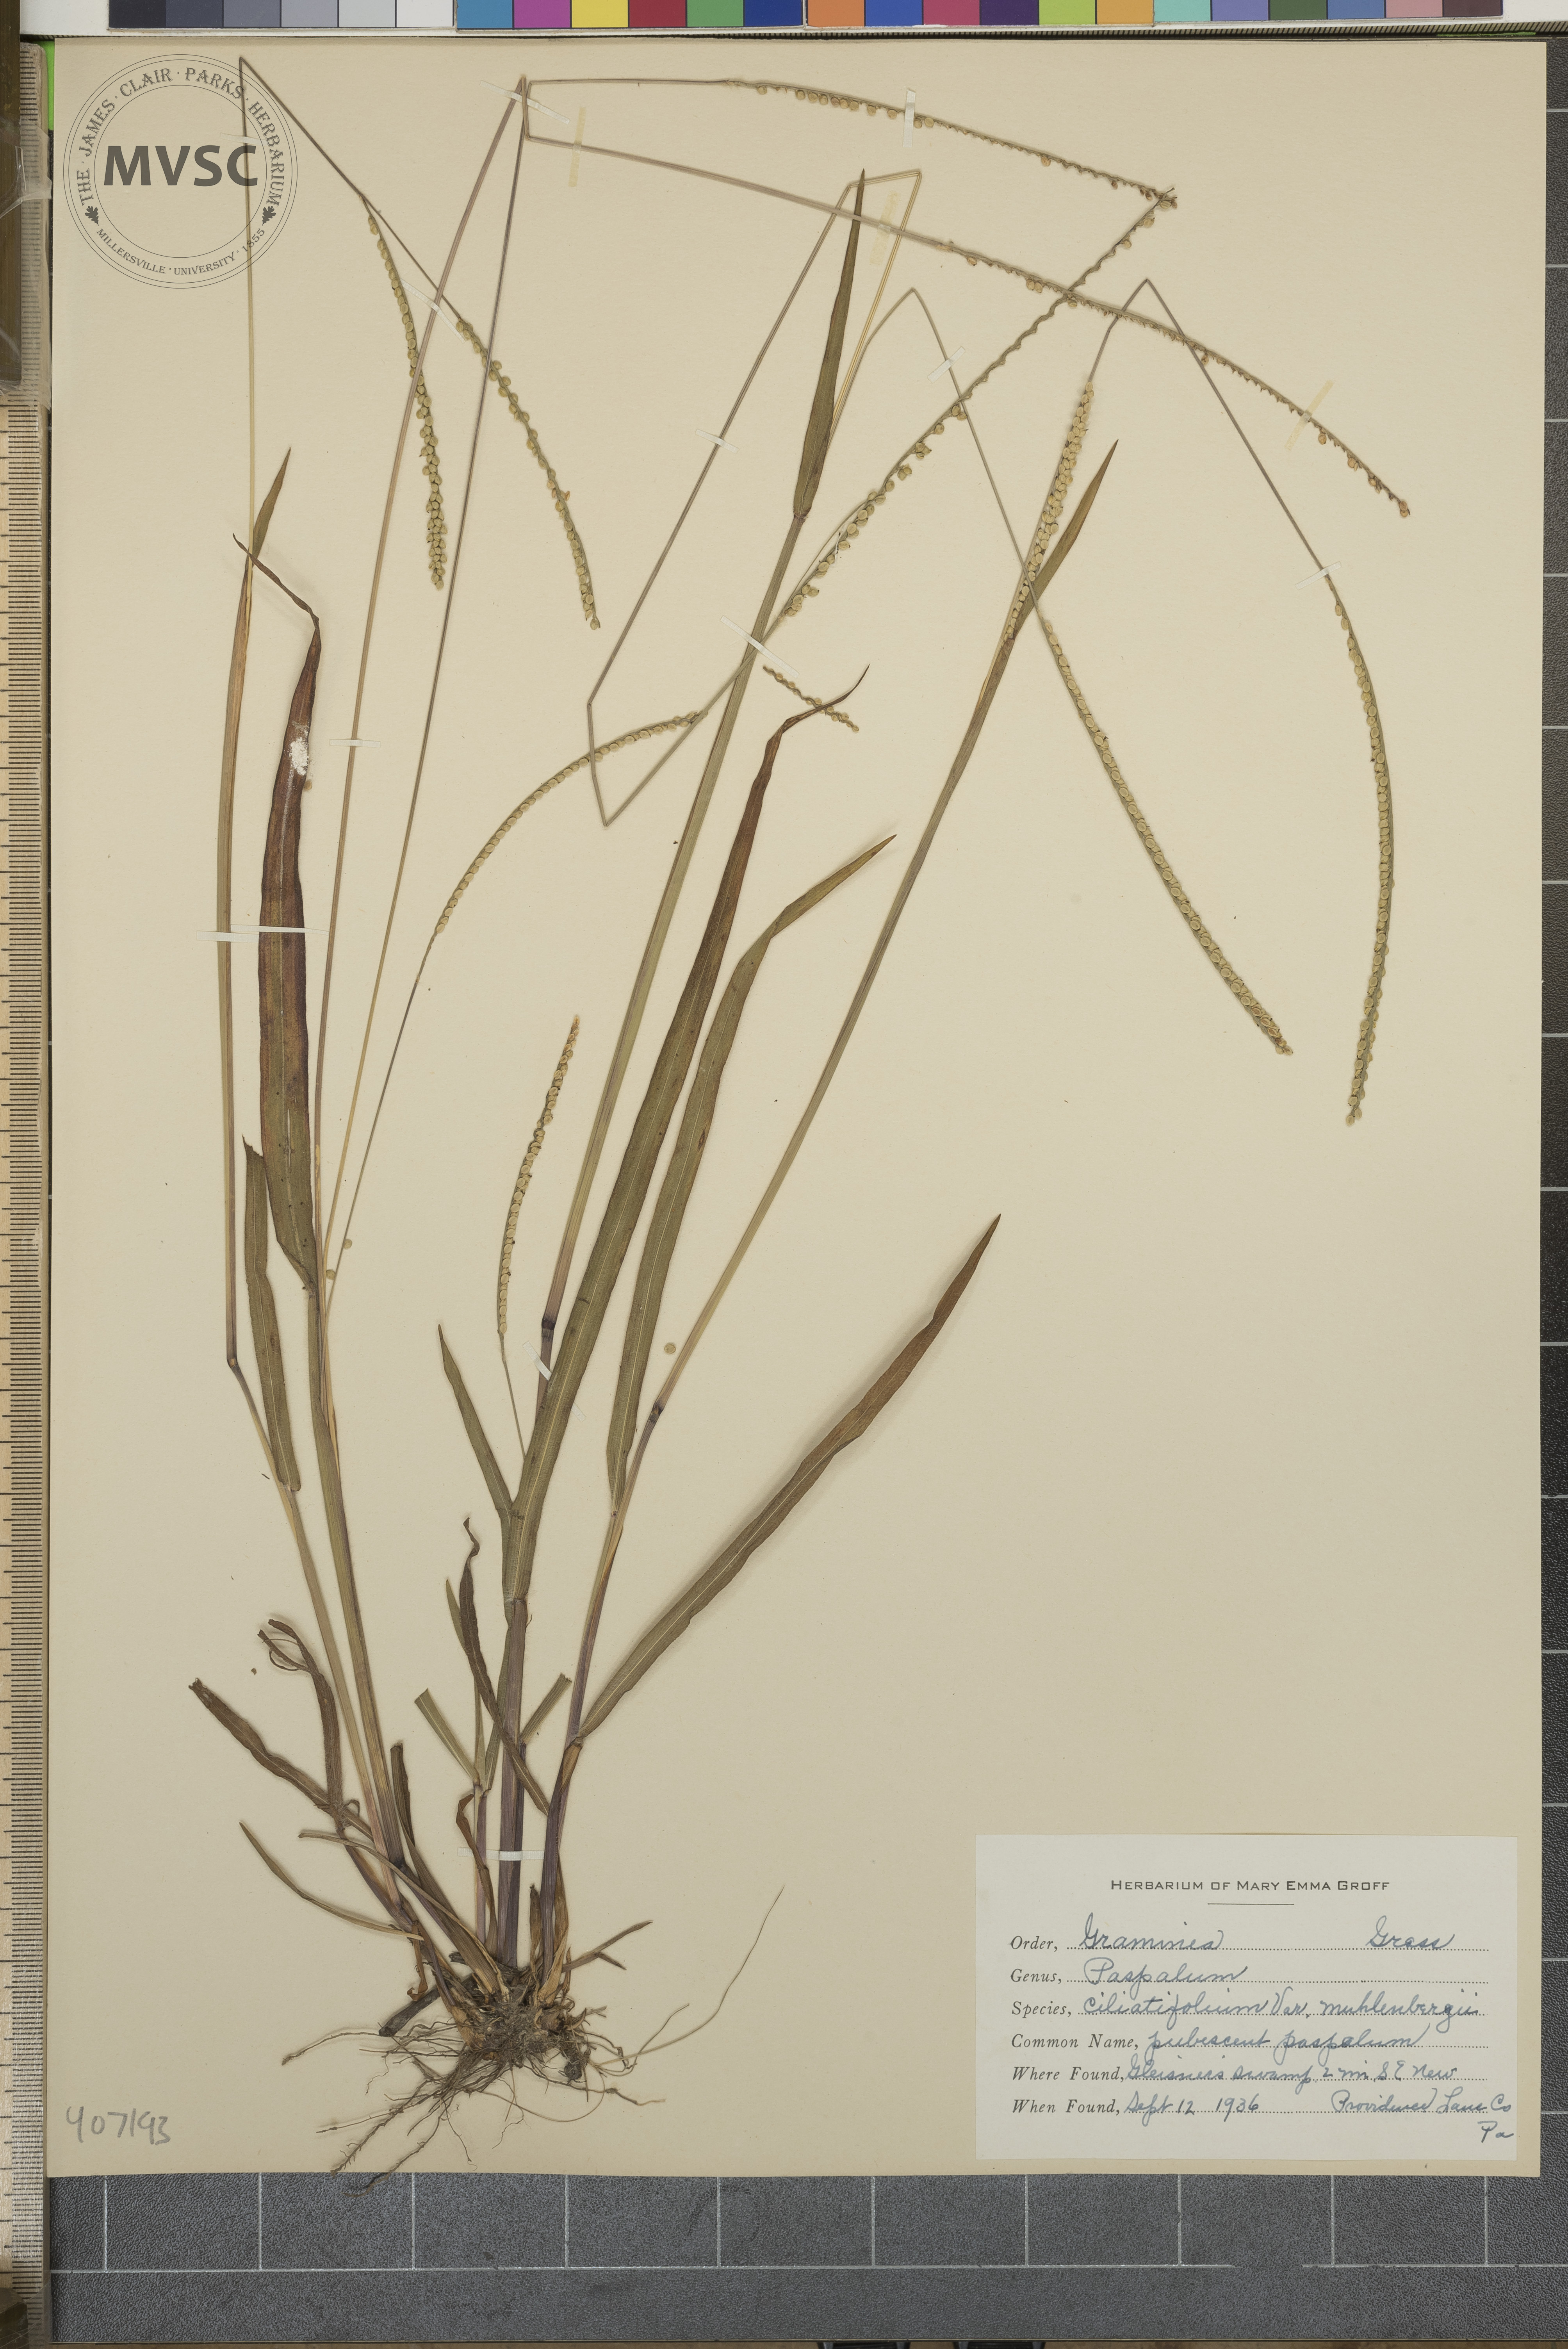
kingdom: Plantae
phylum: Tracheophyta
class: Liliopsida
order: Poales
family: Poaceae
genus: Paspalum
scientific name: Paspalum setaceum
